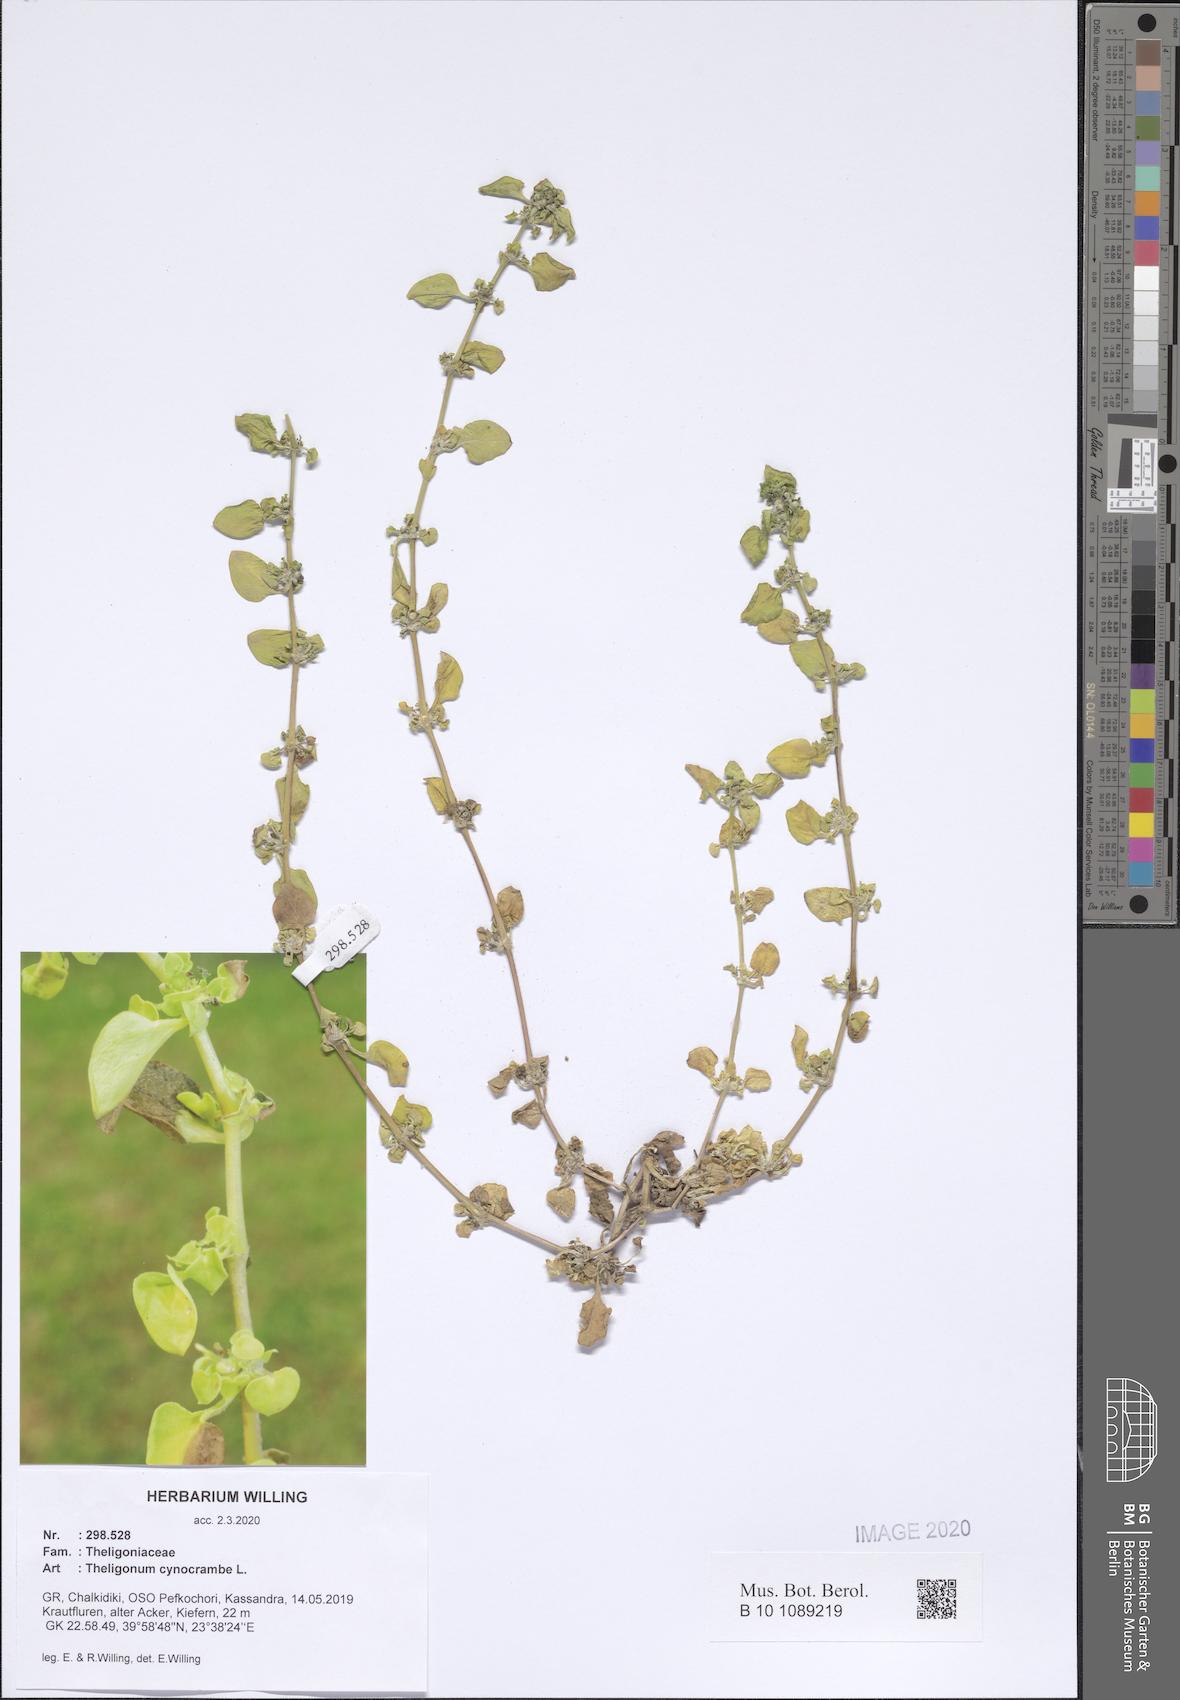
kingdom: Plantae
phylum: Tracheophyta
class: Magnoliopsida
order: Gentianales
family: Rubiaceae
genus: Theligonum
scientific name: Theligonum cynocrambe
